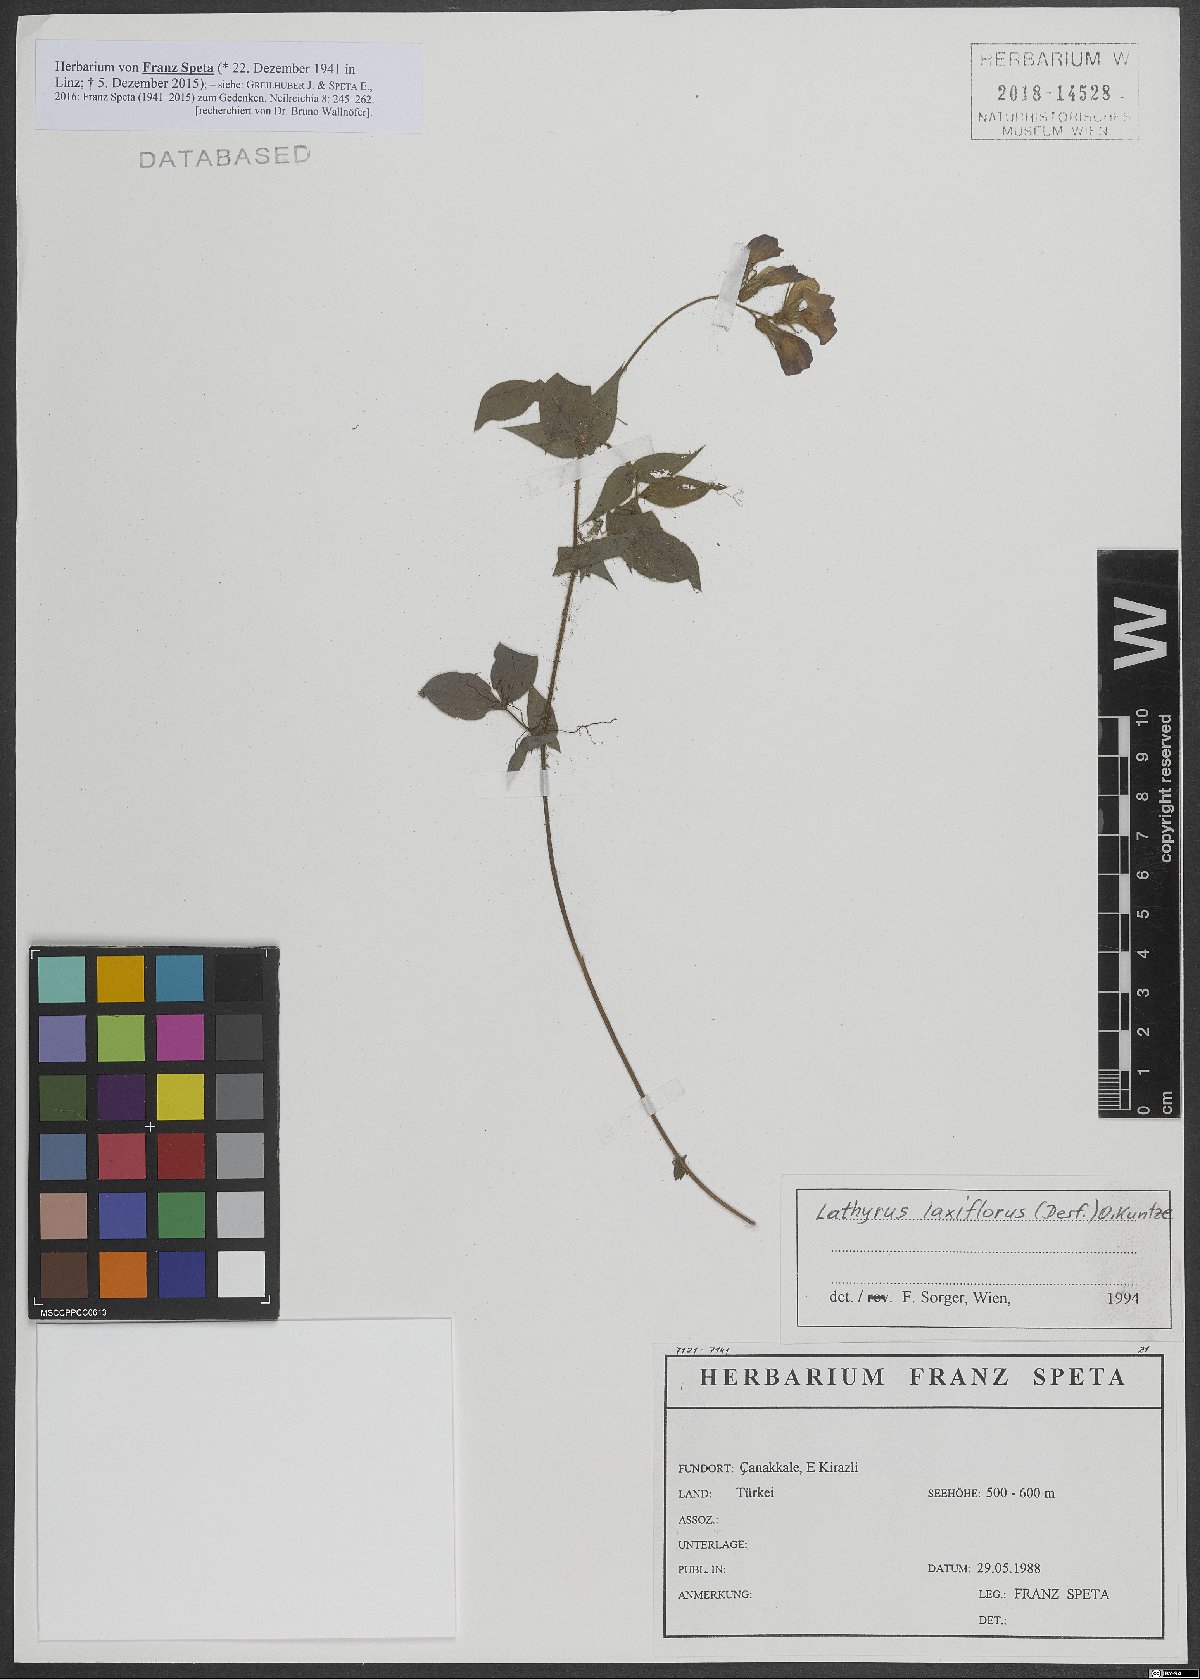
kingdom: Plantae
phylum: Tracheophyta
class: Magnoliopsida
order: Fabales
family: Fabaceae
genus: Lathyrus
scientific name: Lathyrus laxiflorus
